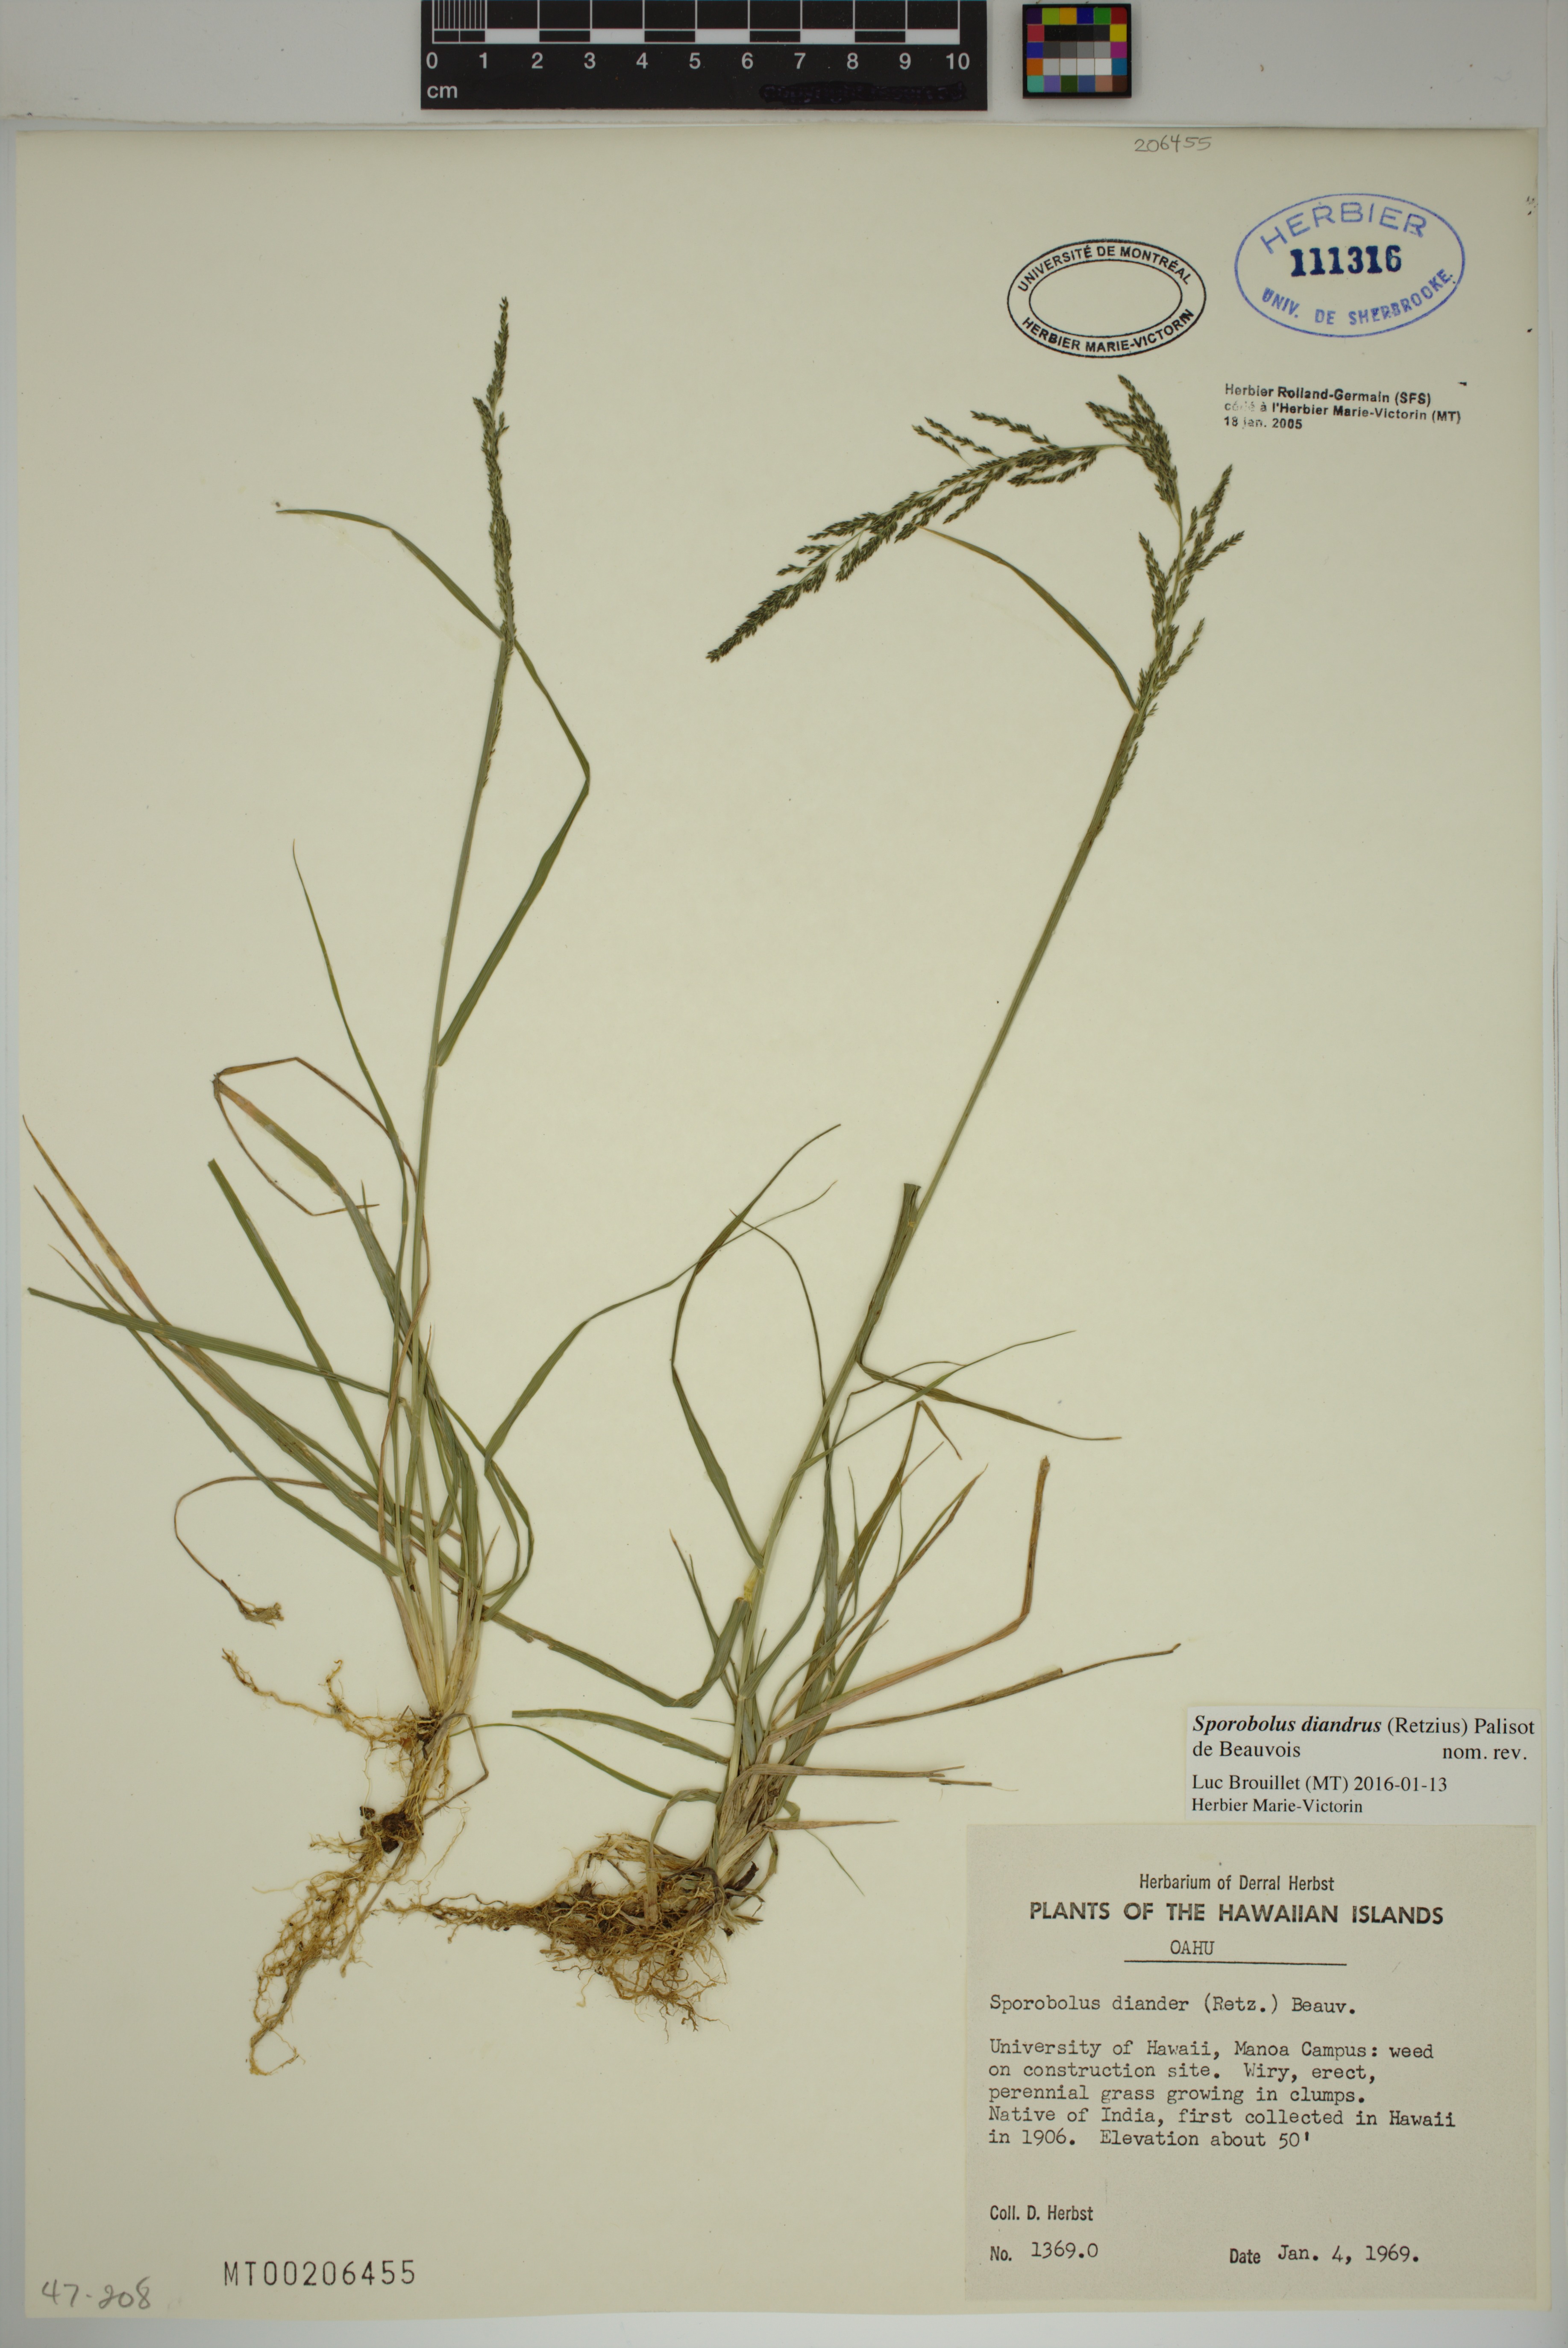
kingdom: Plantae
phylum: Tracheophyta
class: Liliopsida
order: Poales
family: Poaceae
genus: Sporobolus
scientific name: Sporobolus diandrus
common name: Tussock dropseed
